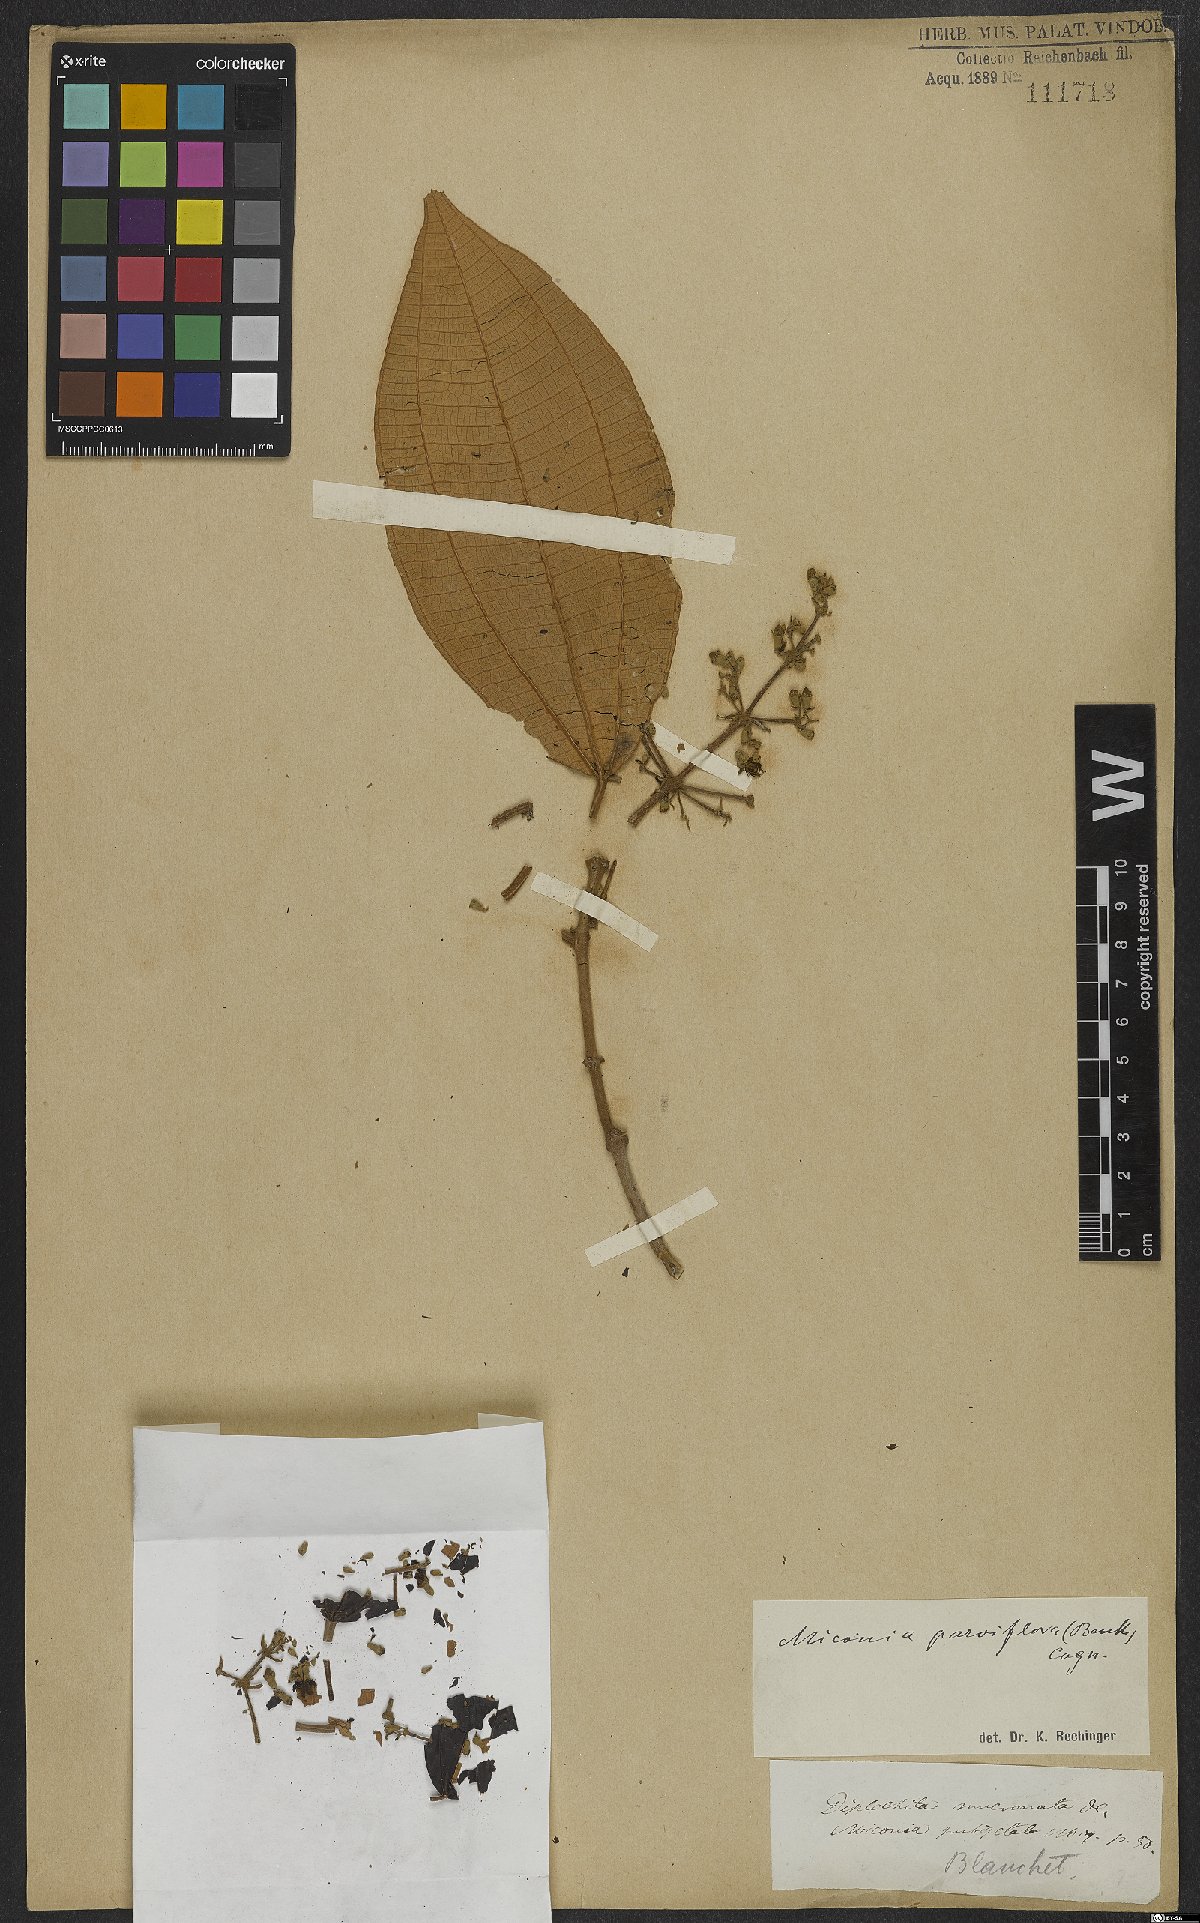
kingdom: Plantae
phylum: Tracheophyta
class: Magnoliopsida
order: Myrtales
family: Melastomataceae
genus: Miconia
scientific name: Miconia brasiliensis
